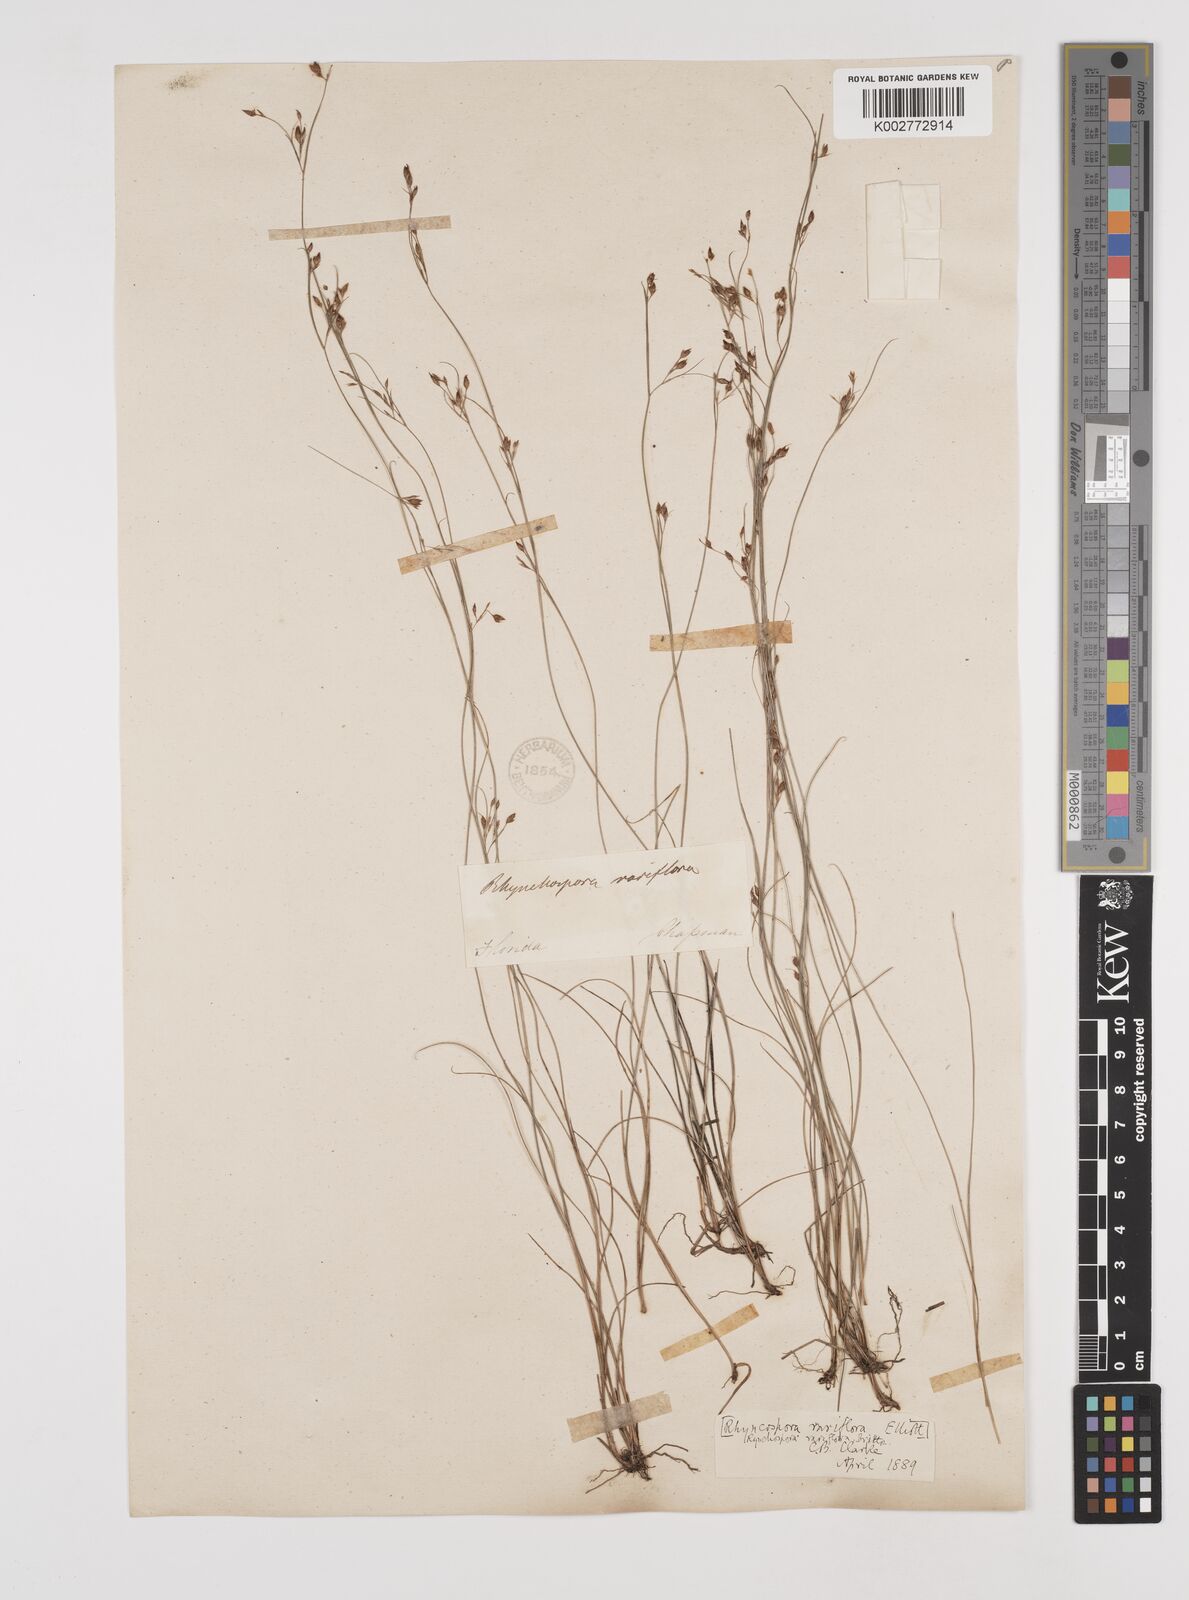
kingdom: Plantae
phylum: Tracheophyta
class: Liliopsida
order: Poales
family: Cyperaceae
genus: Rhynchospora
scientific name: Rhynchospora rariflora
